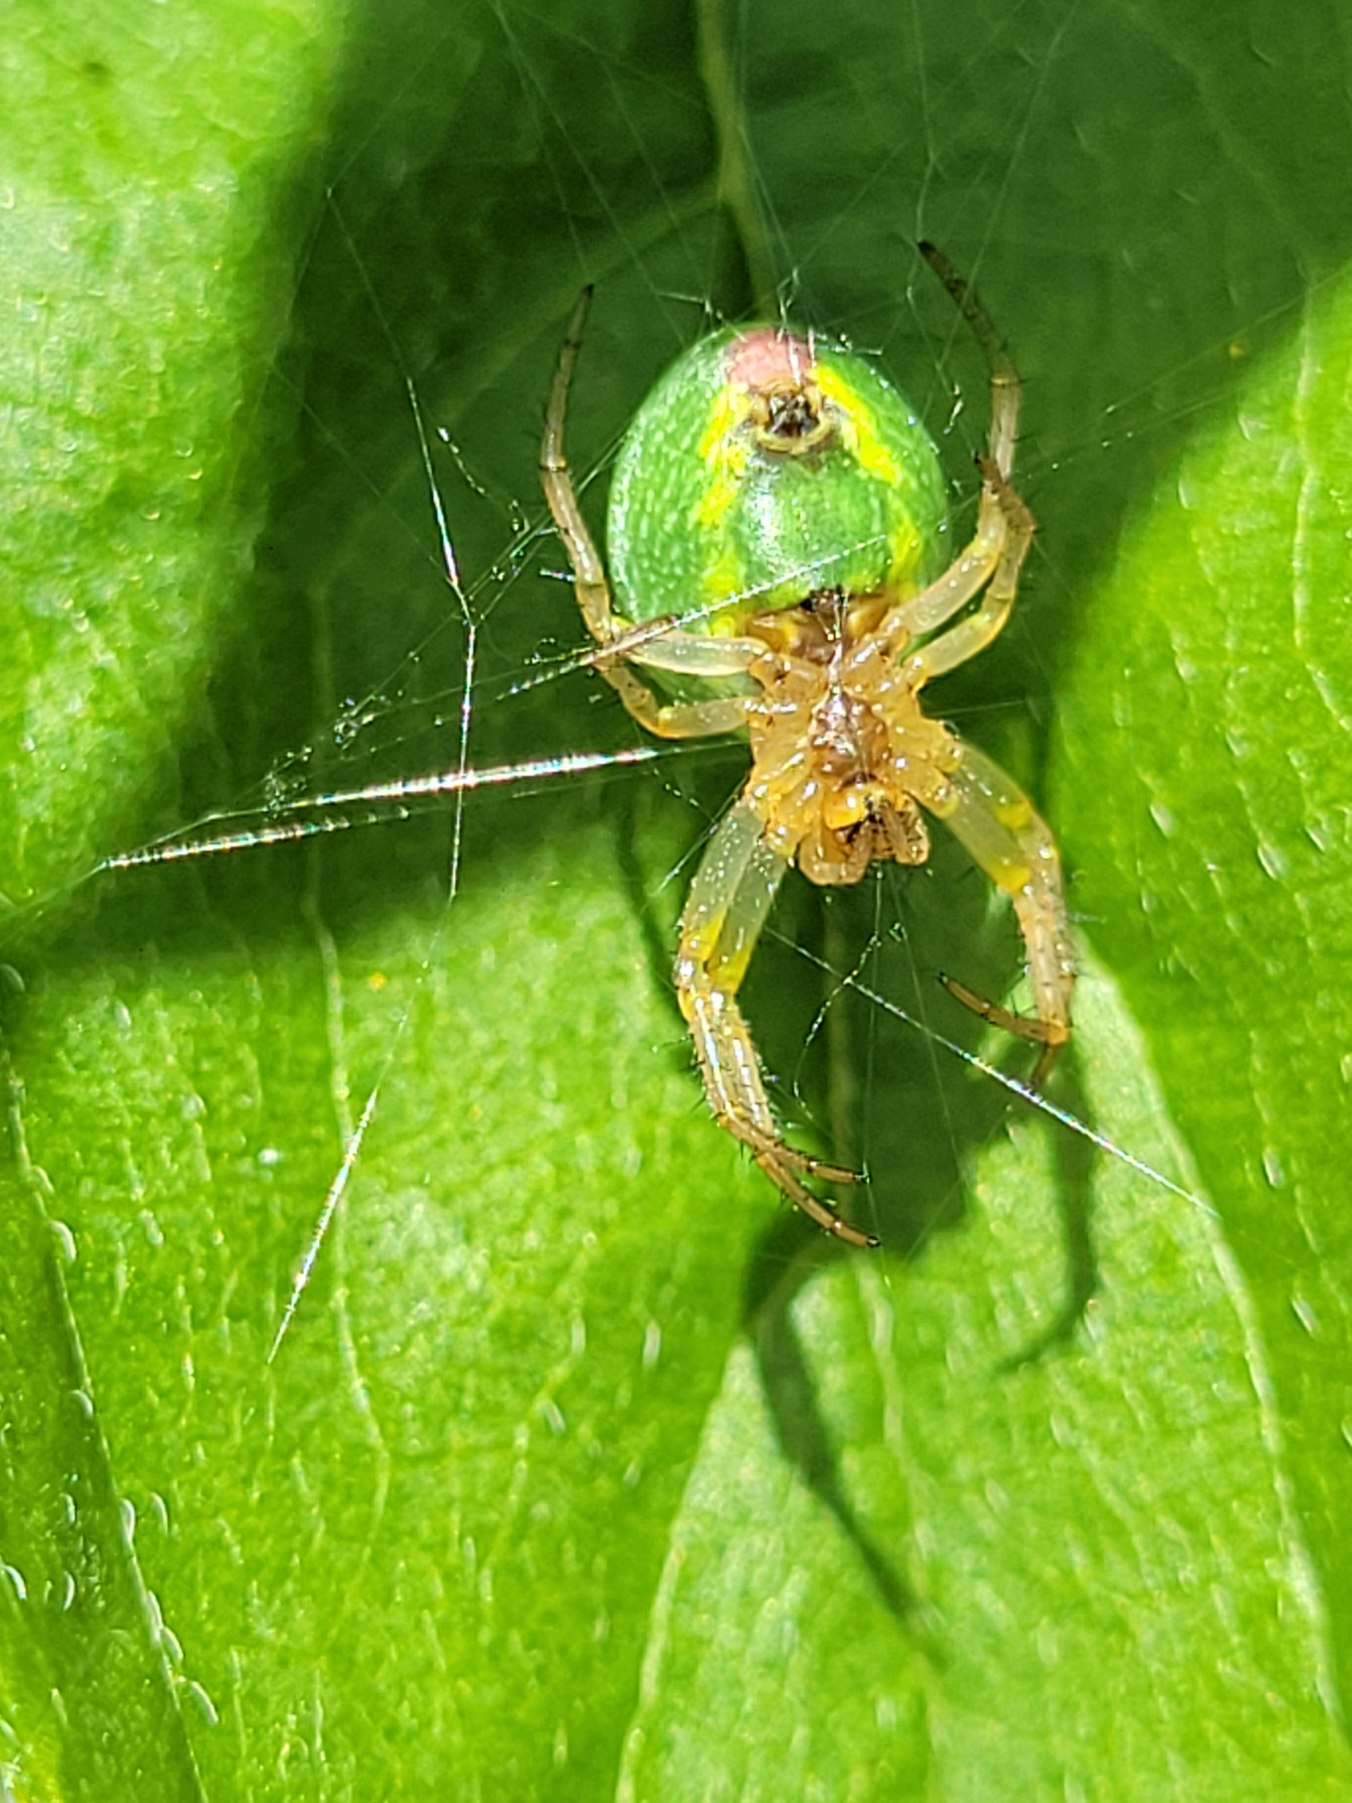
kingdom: Animalia
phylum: Arthropoda
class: Arachnida
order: Araneae
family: Araneidae
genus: Araniella
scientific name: Araniella
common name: Agurkeedderkopslægten
